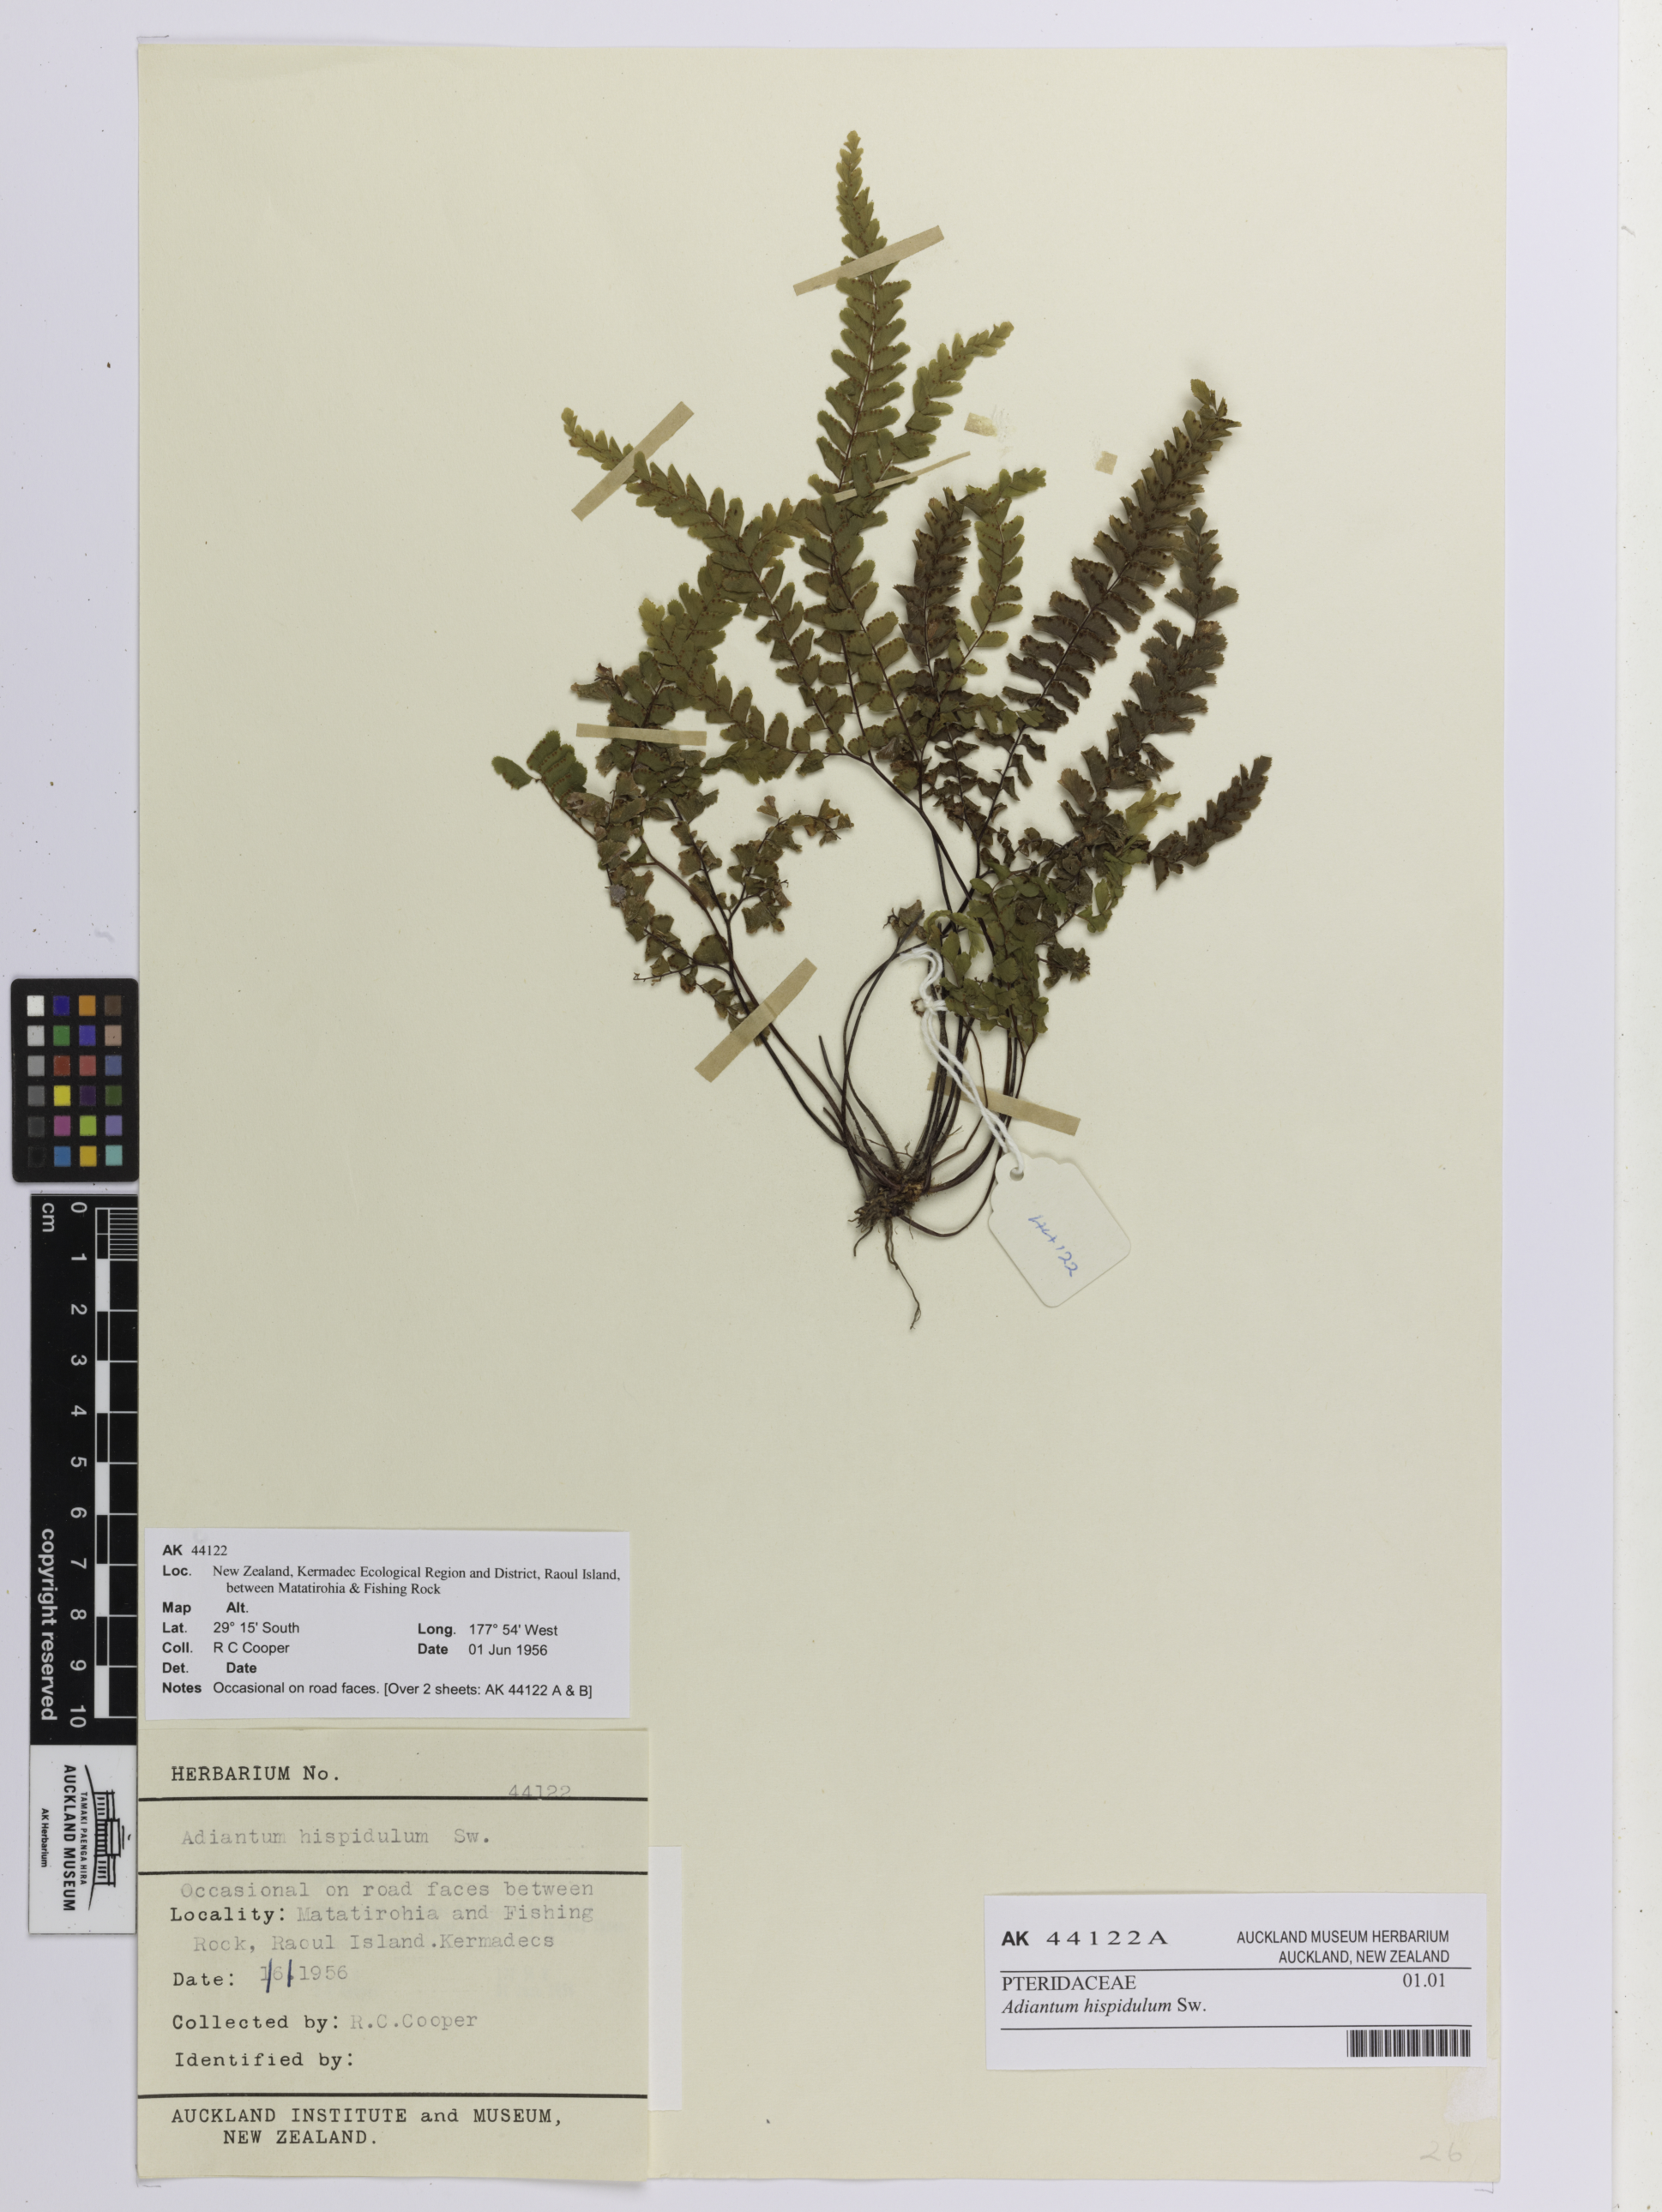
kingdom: Plantae
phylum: Tracheophyta
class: Polypodiopsida
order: Polypodiales
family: Pteridaceae
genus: Adiantum
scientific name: Adiantum hispidulum
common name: Rough maidenhair
